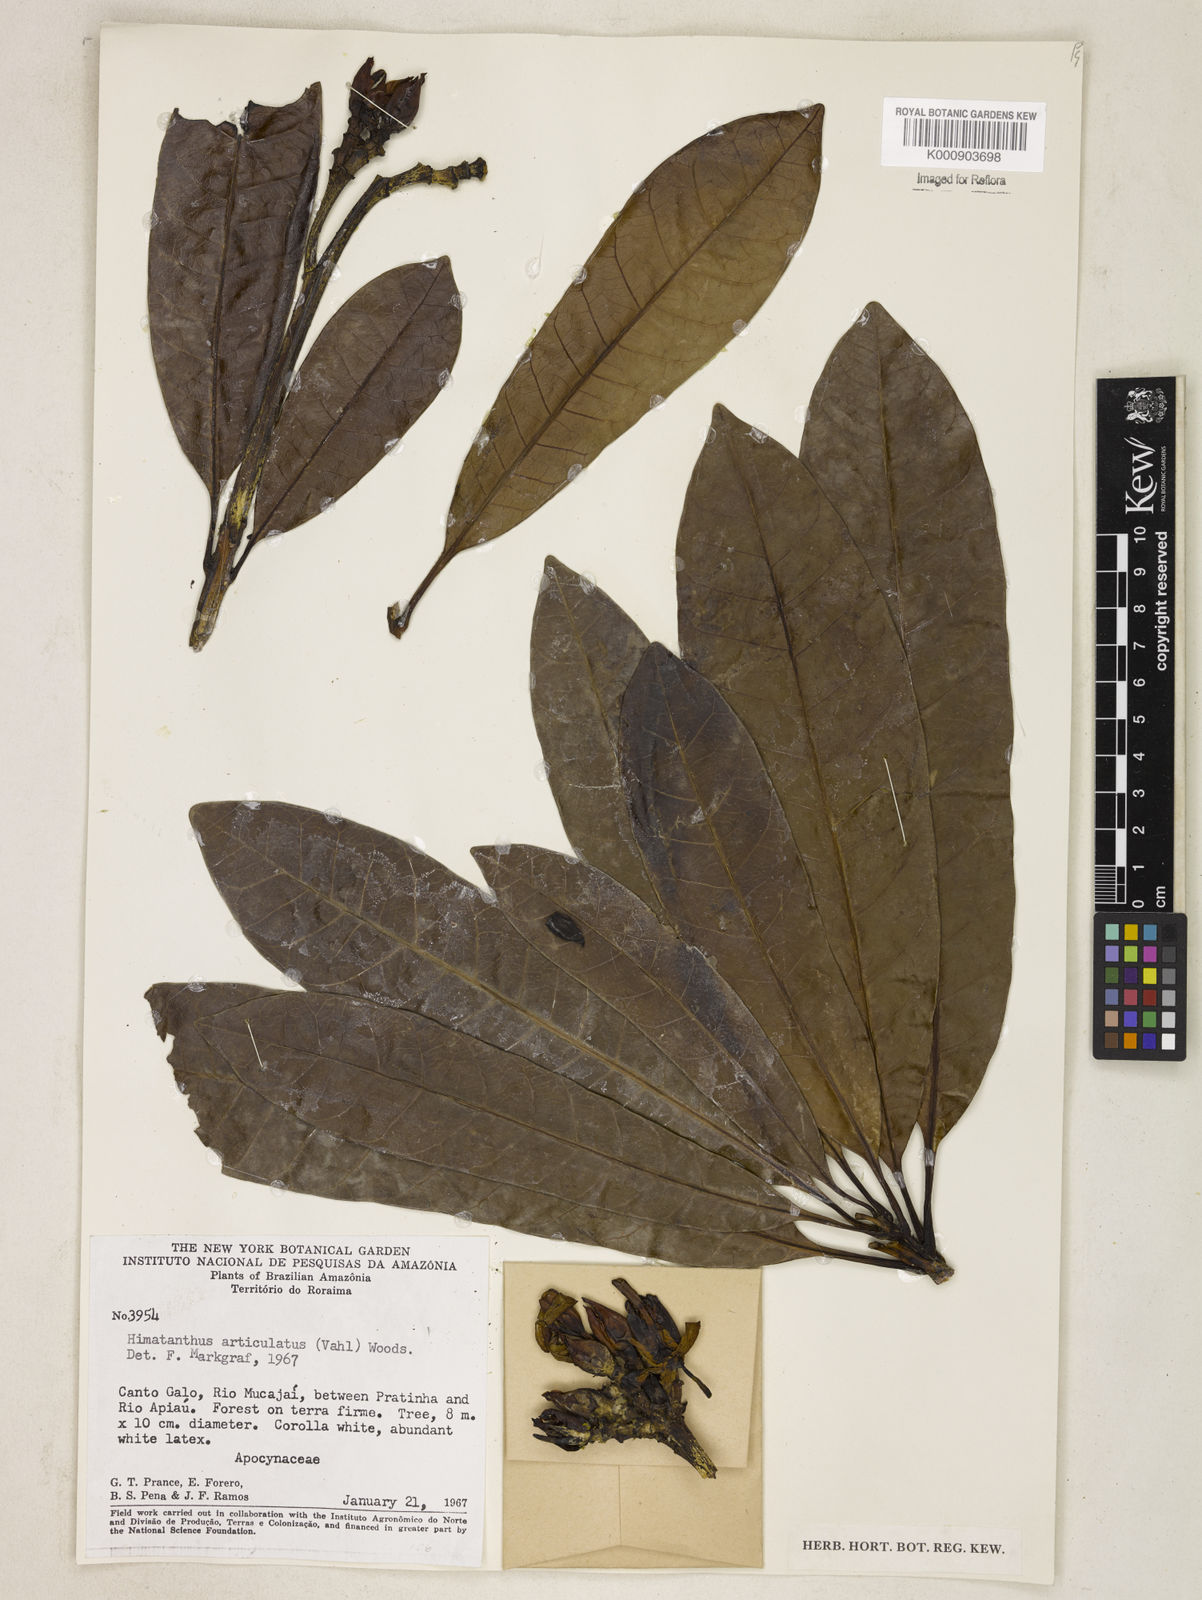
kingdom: Plantae
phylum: Tracheophyta
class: Magnoliopsida
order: Gentianales
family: Apocynaceae
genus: Himatanthus
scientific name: Himatanthus articulatus
